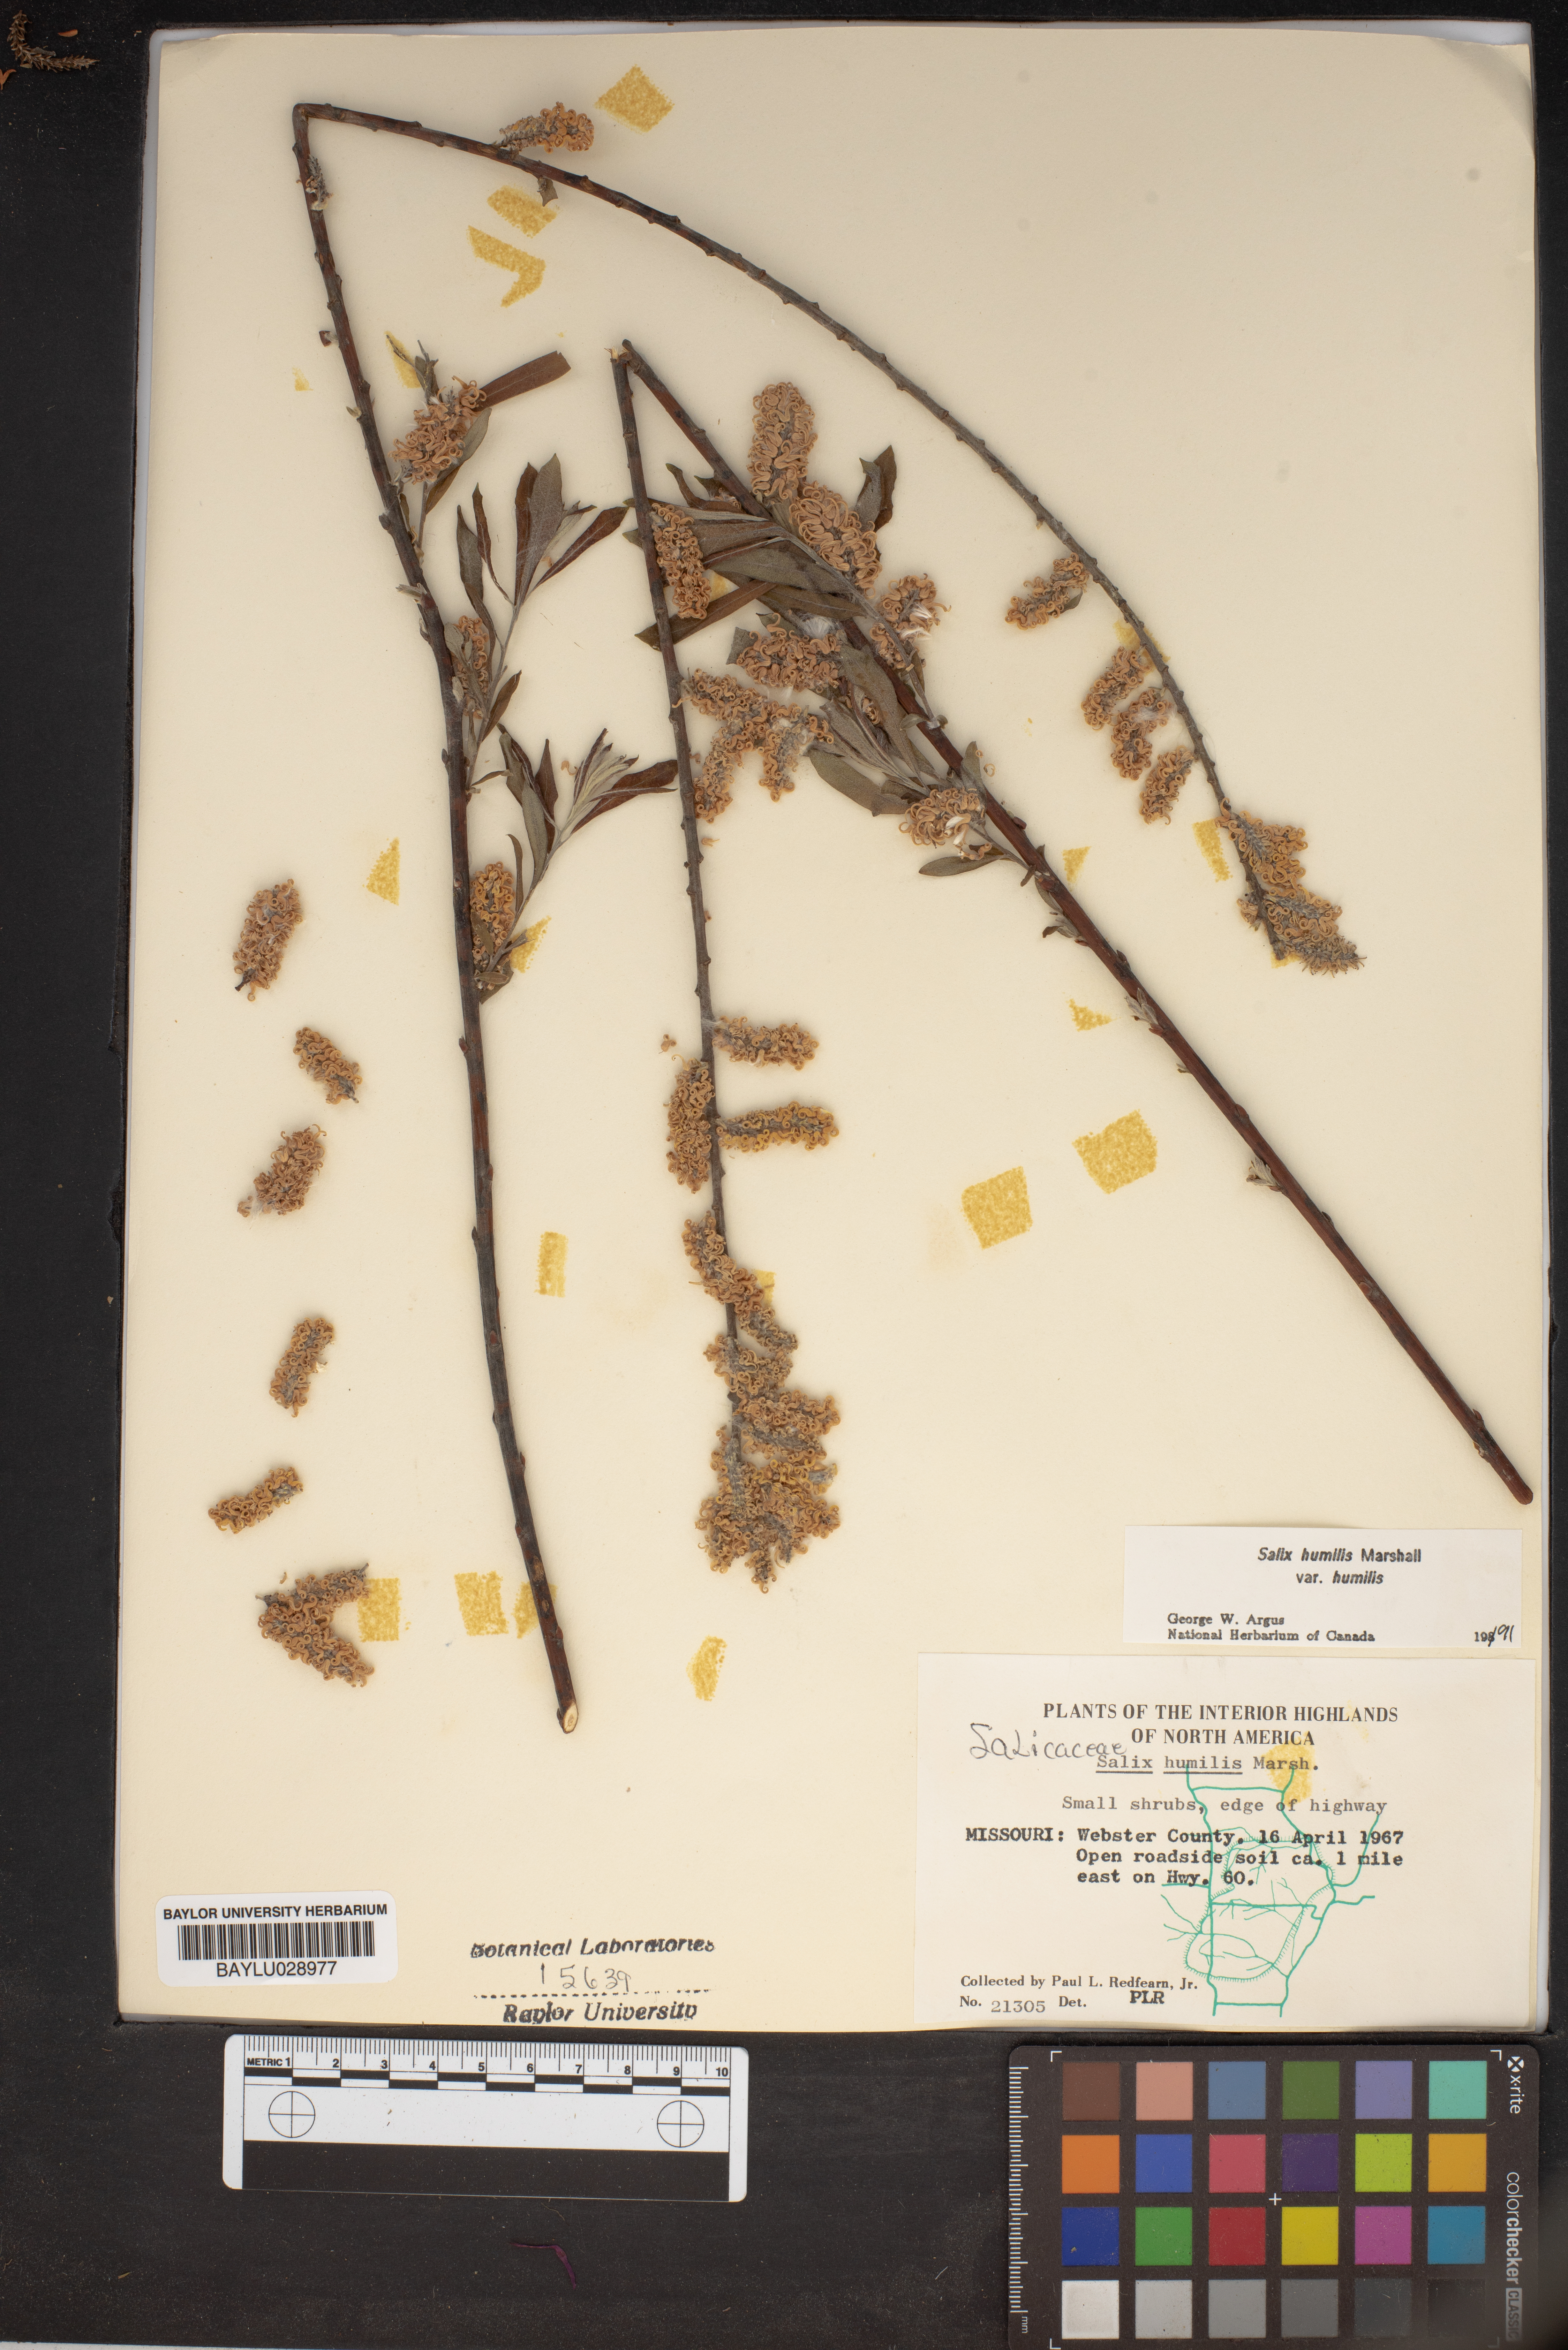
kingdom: Plantae
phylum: Tracheophyta
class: Magnoliopsida
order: Malpighiales
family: Salicaceae
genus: Salix
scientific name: Salix humilis
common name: Prairie willow
